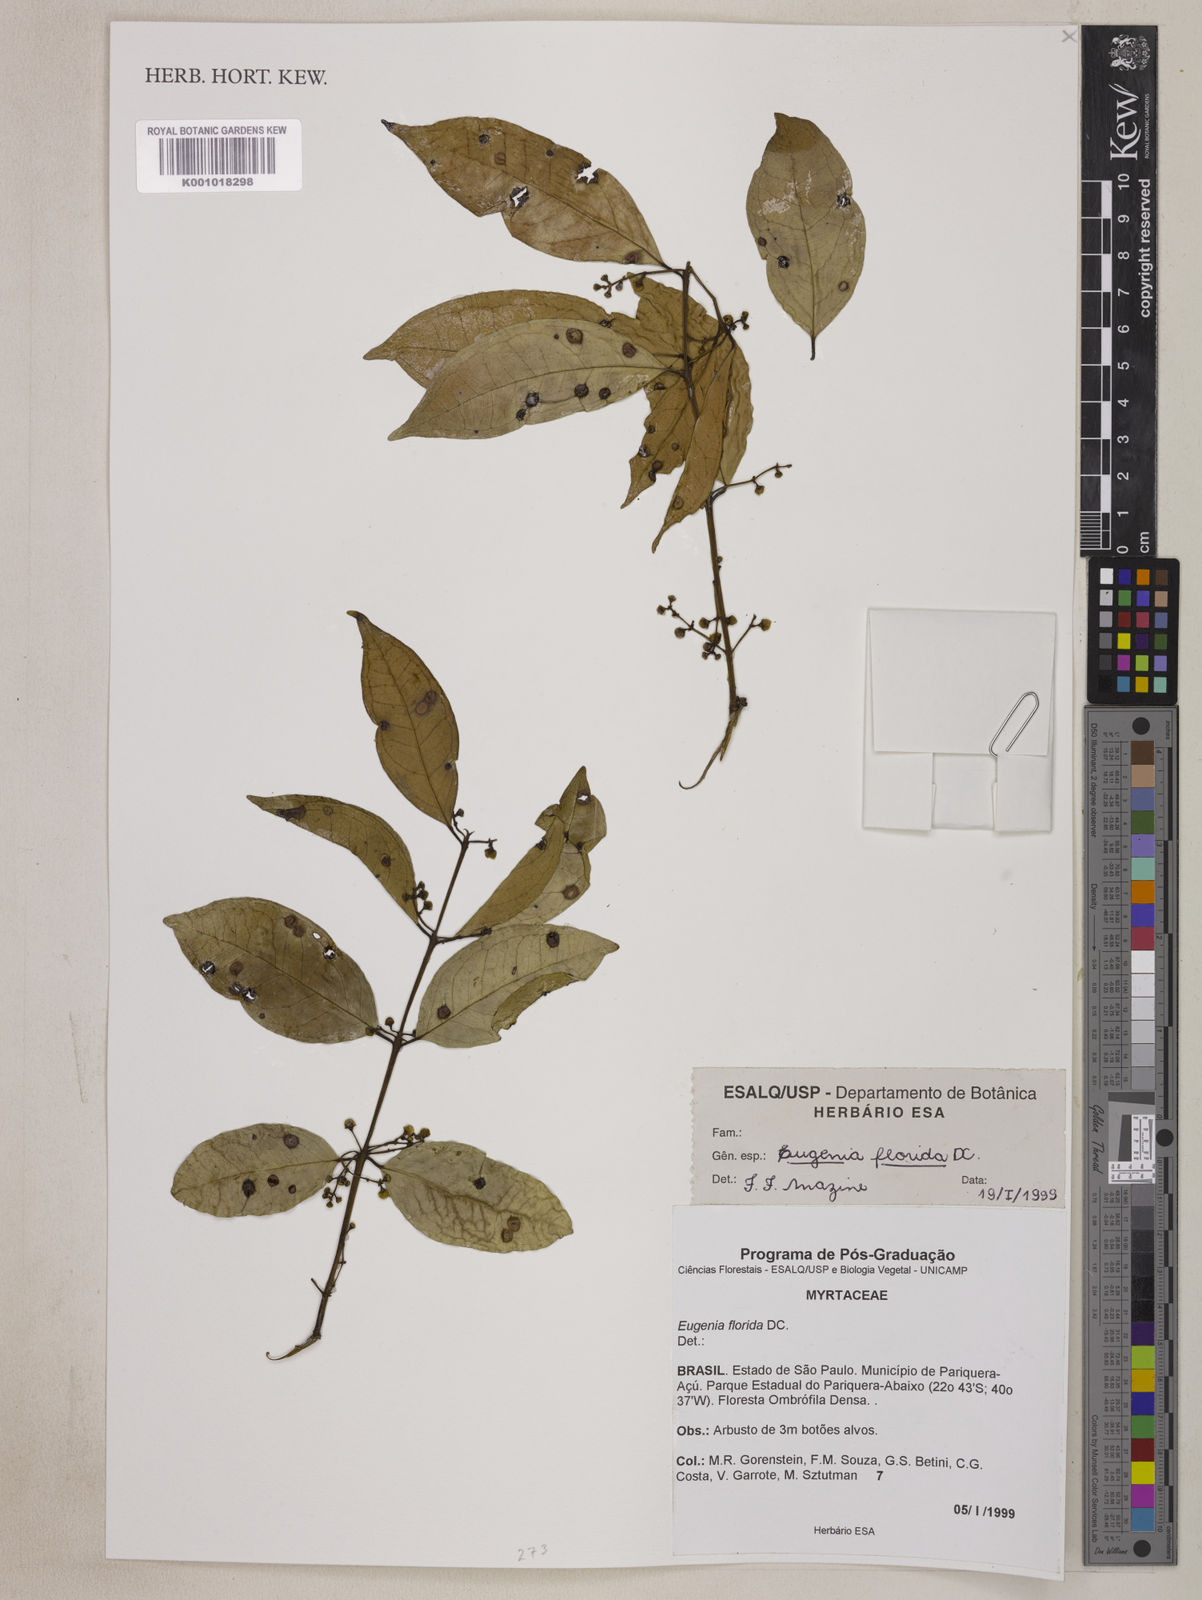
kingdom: Plantae
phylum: Tracheophyta
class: Magnoliopsida
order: Myrtales
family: Myrtaceae
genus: Eugenia
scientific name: Eugenia florida
